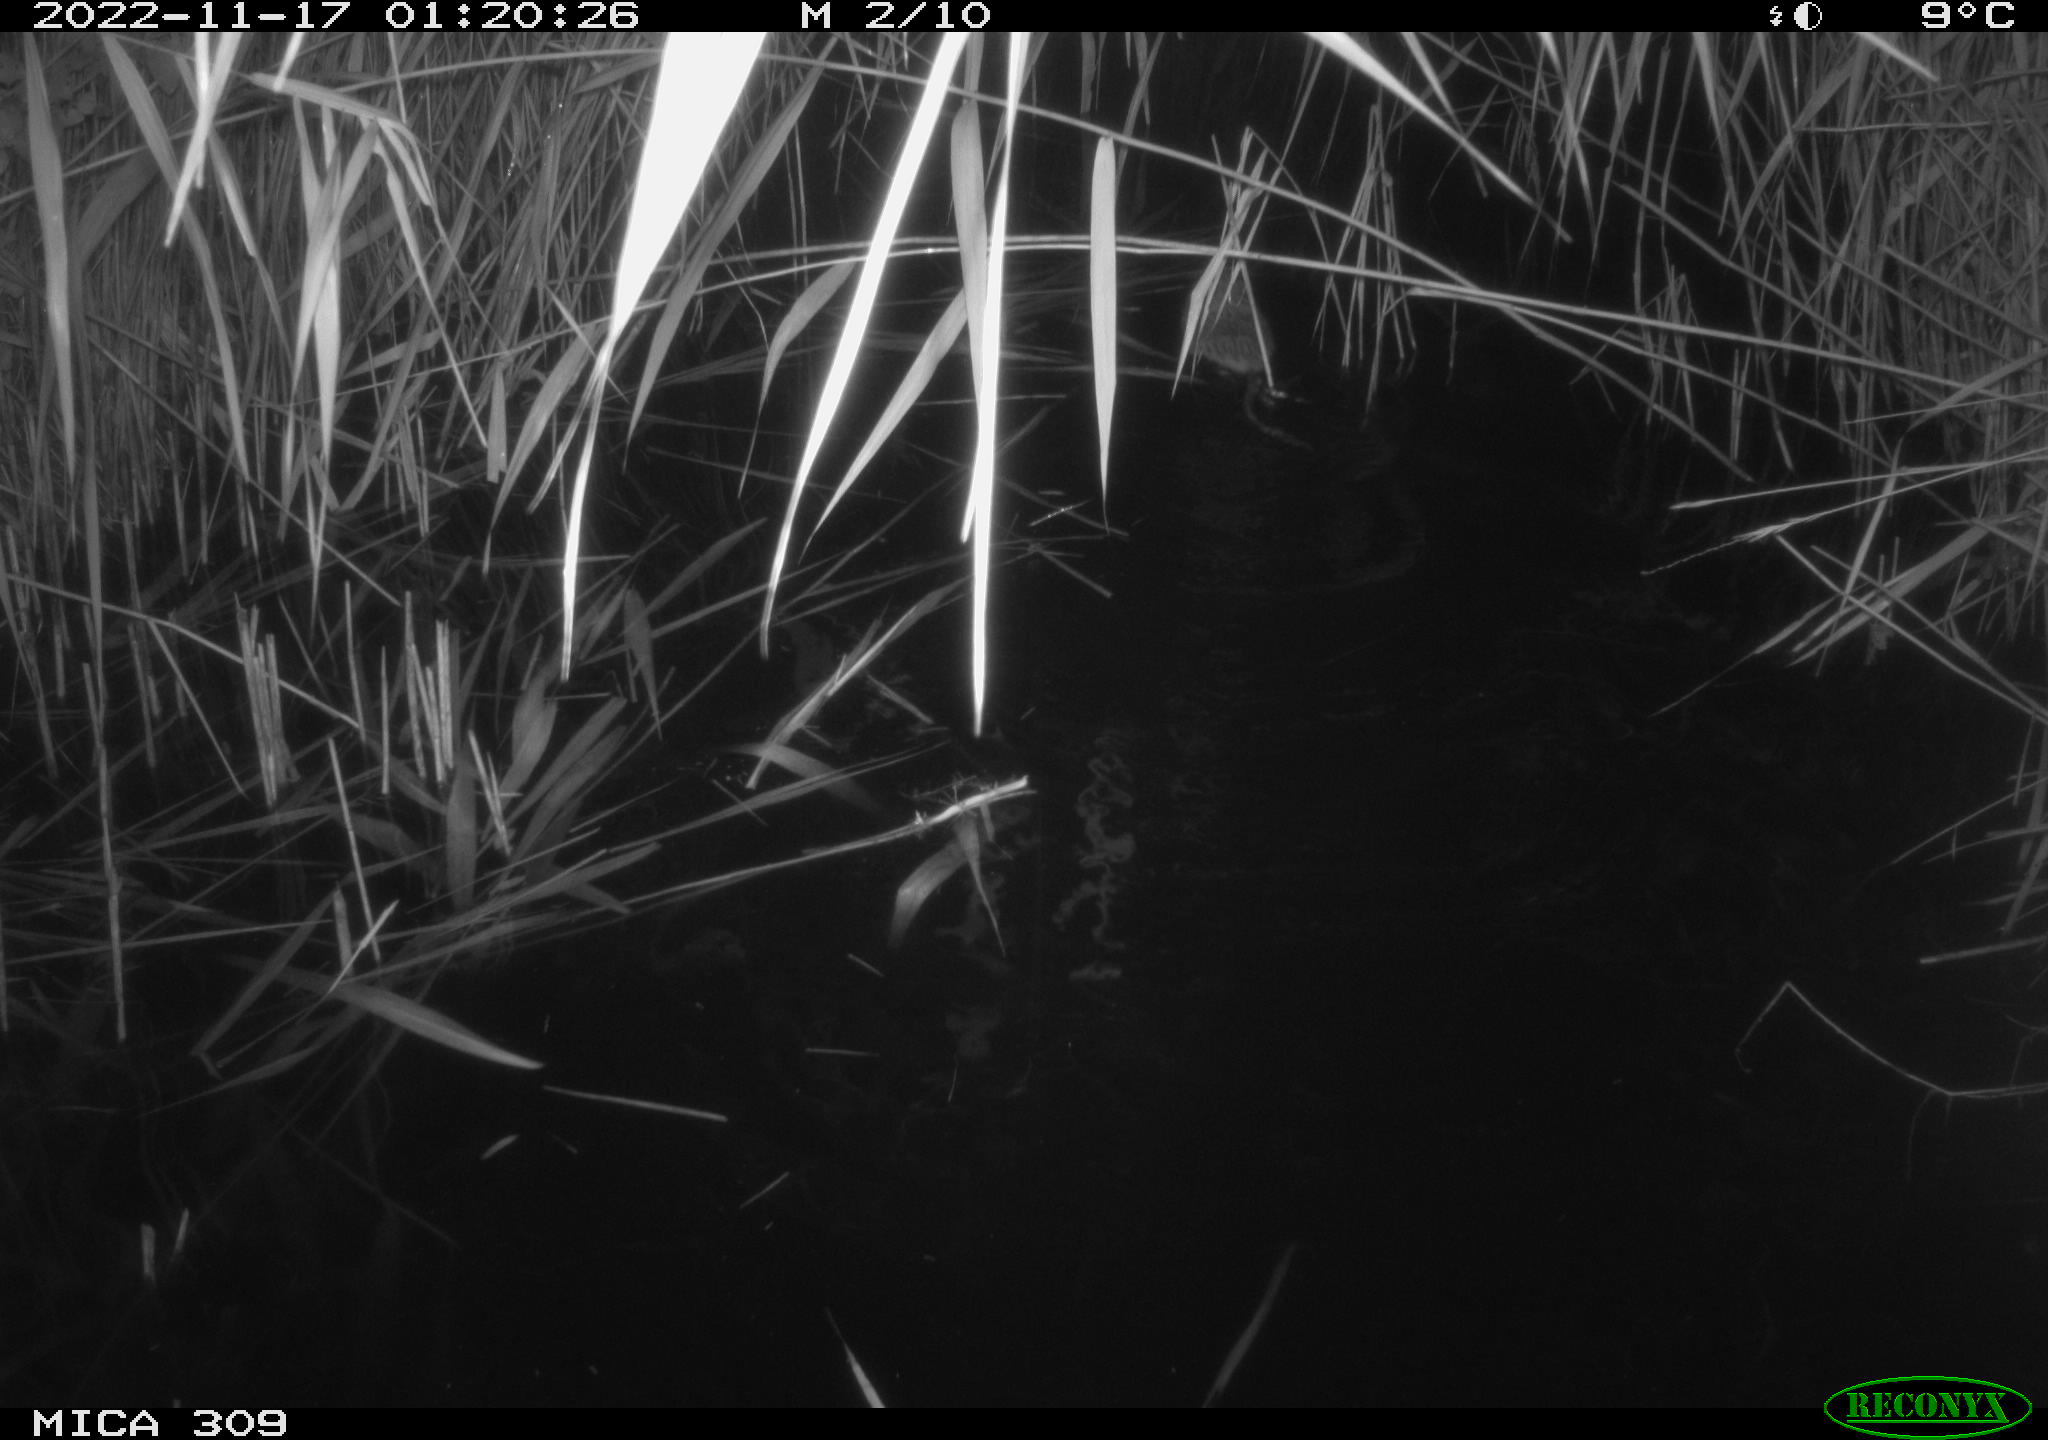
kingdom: Animalia
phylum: Chordata
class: Mammalia
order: Rodentia
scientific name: Rodentia
